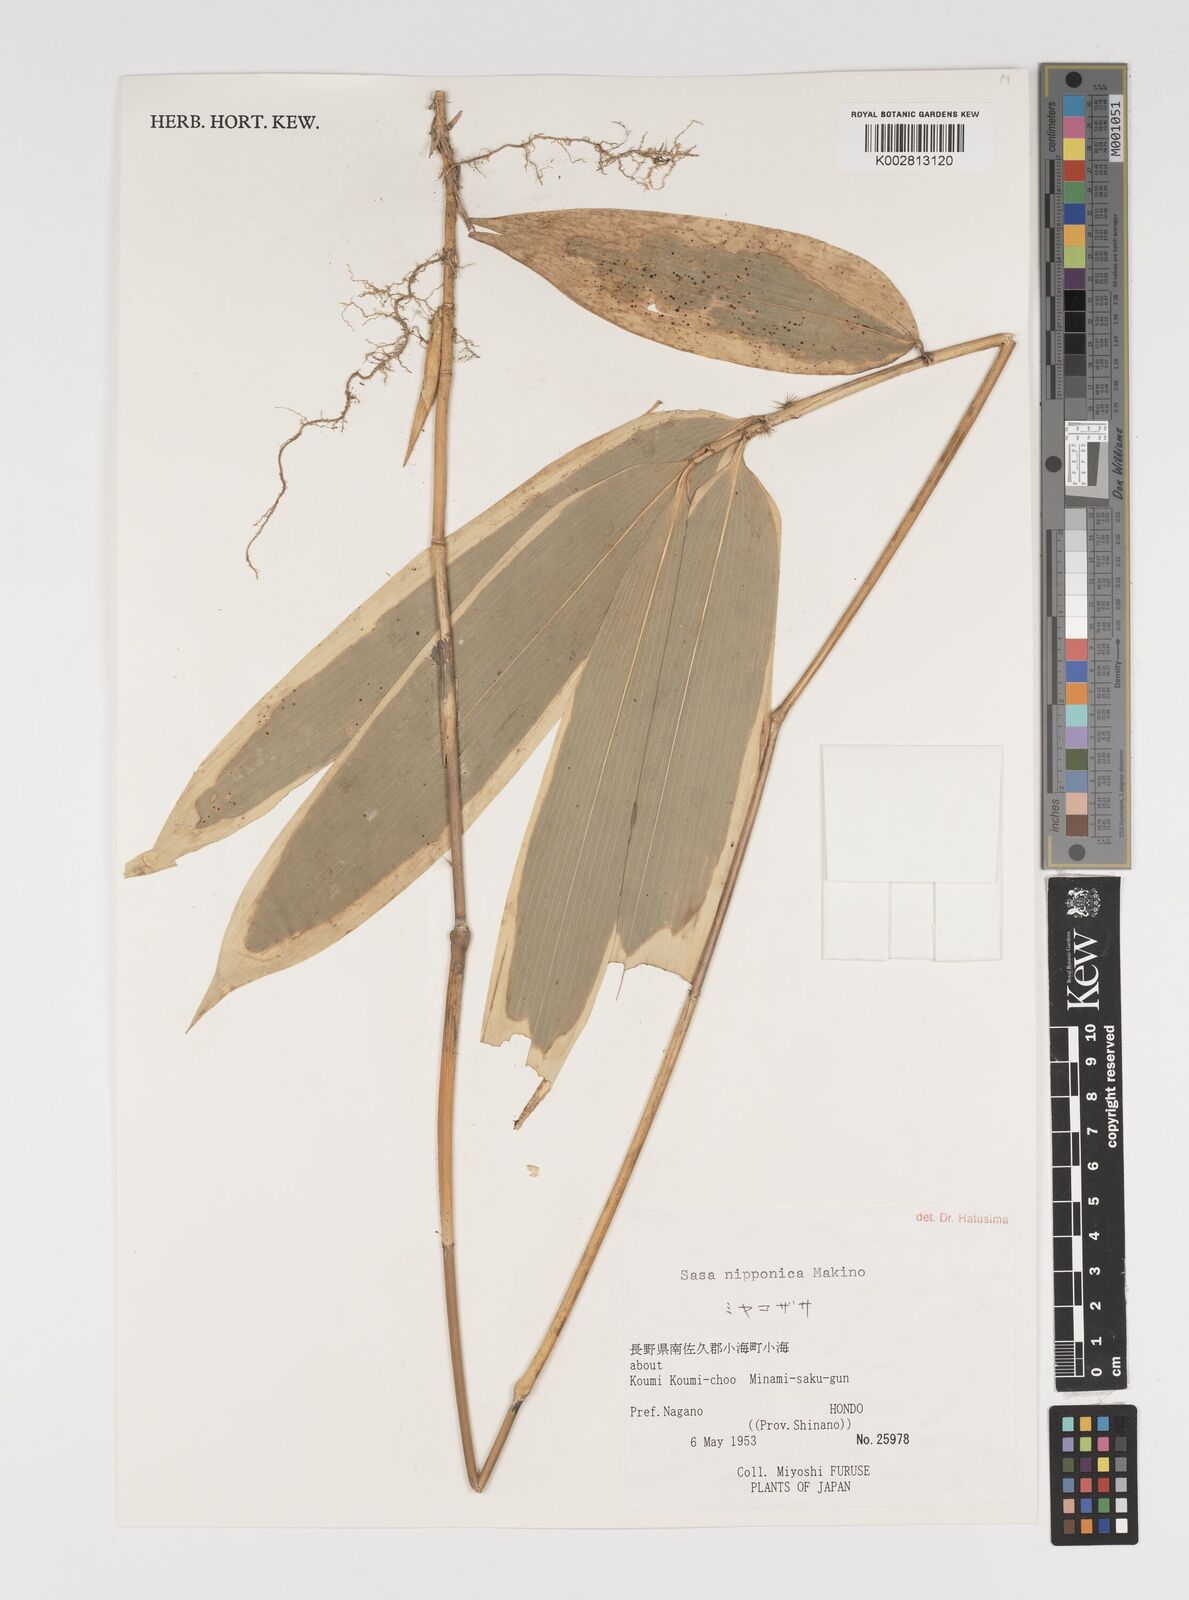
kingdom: Plantae
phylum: Tracheophyta
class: Liliopsida
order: Poales
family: Poaceae
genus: Sasa
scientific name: Sasa nipponica
